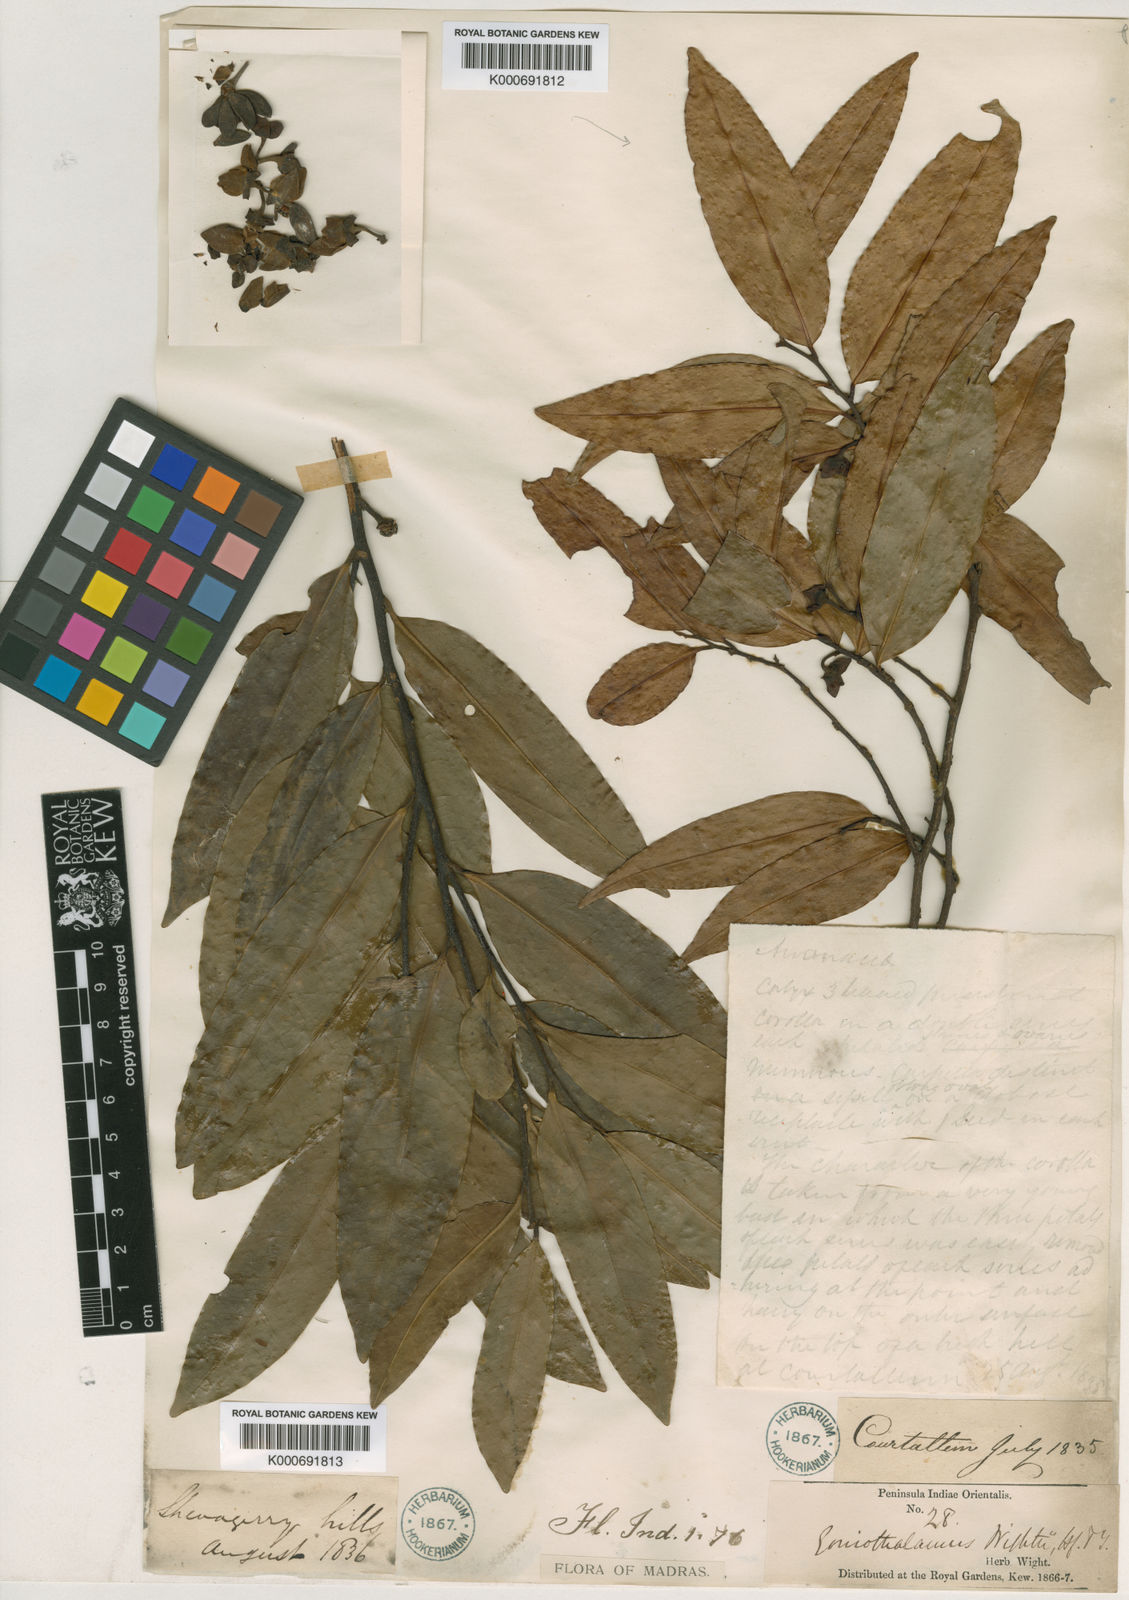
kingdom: Plantae
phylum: Tracheophyta
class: Magnoliopsida
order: Magnoliales
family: Annonaceae
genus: Goniothalamus
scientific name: Goniothalamus wightii
